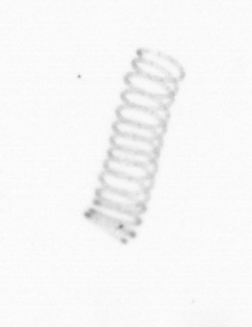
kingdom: Chromista
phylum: Ochrophyta
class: Bacillariophyceae
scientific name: Bacillariophyceae
